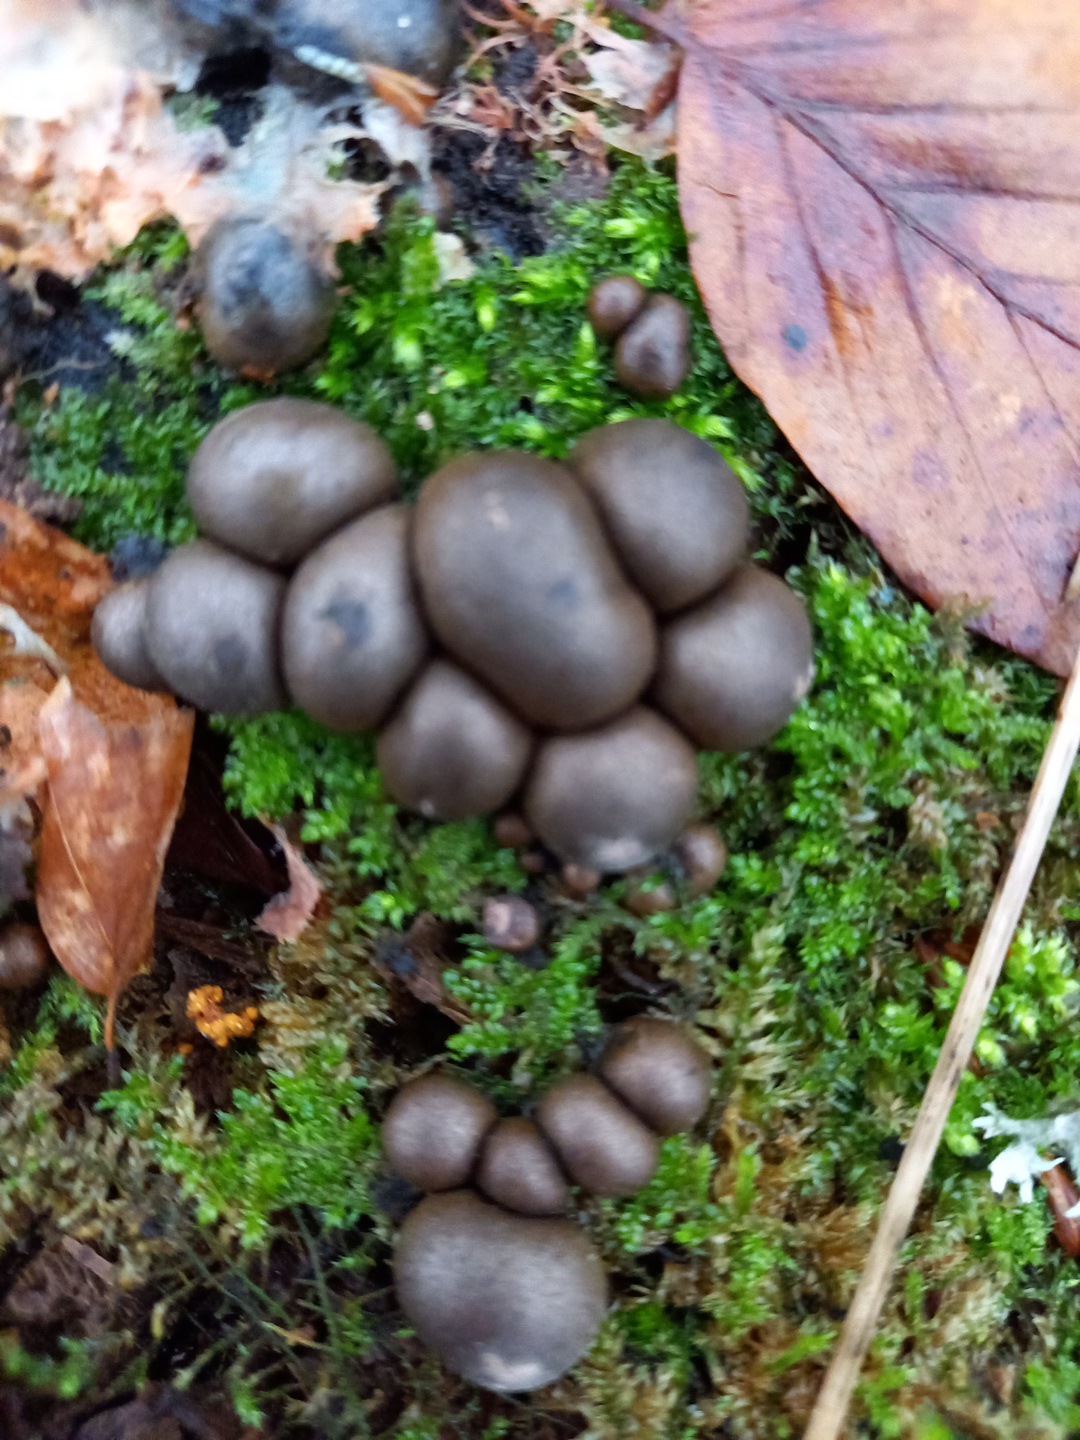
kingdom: Protozoa
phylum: Mycetozoa
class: Myxomycetes
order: Cribrariales
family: Tubiferaceae
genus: Lycogala
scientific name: Lycogala epidendrum
